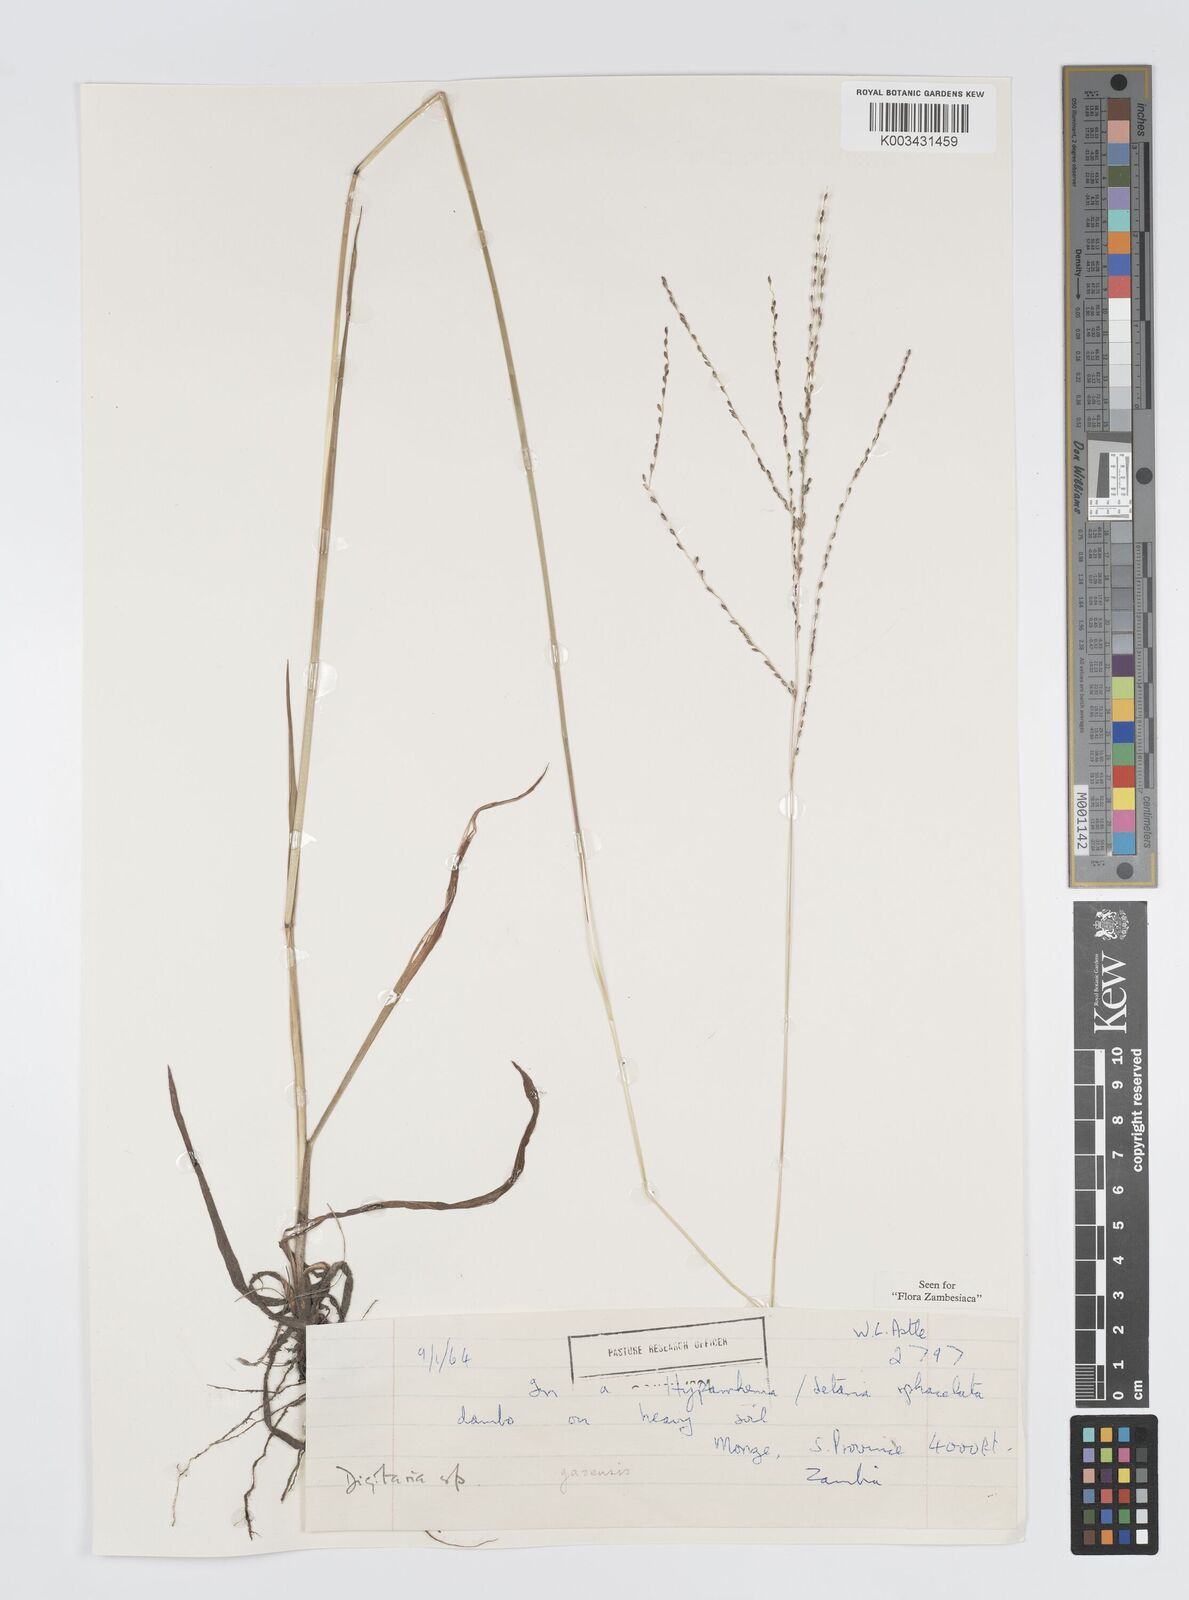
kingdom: Plantae
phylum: Tracheophyta
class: Liliopsida
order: Poales
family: Poaceae
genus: Digitaria
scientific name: Digitaria gazensis
